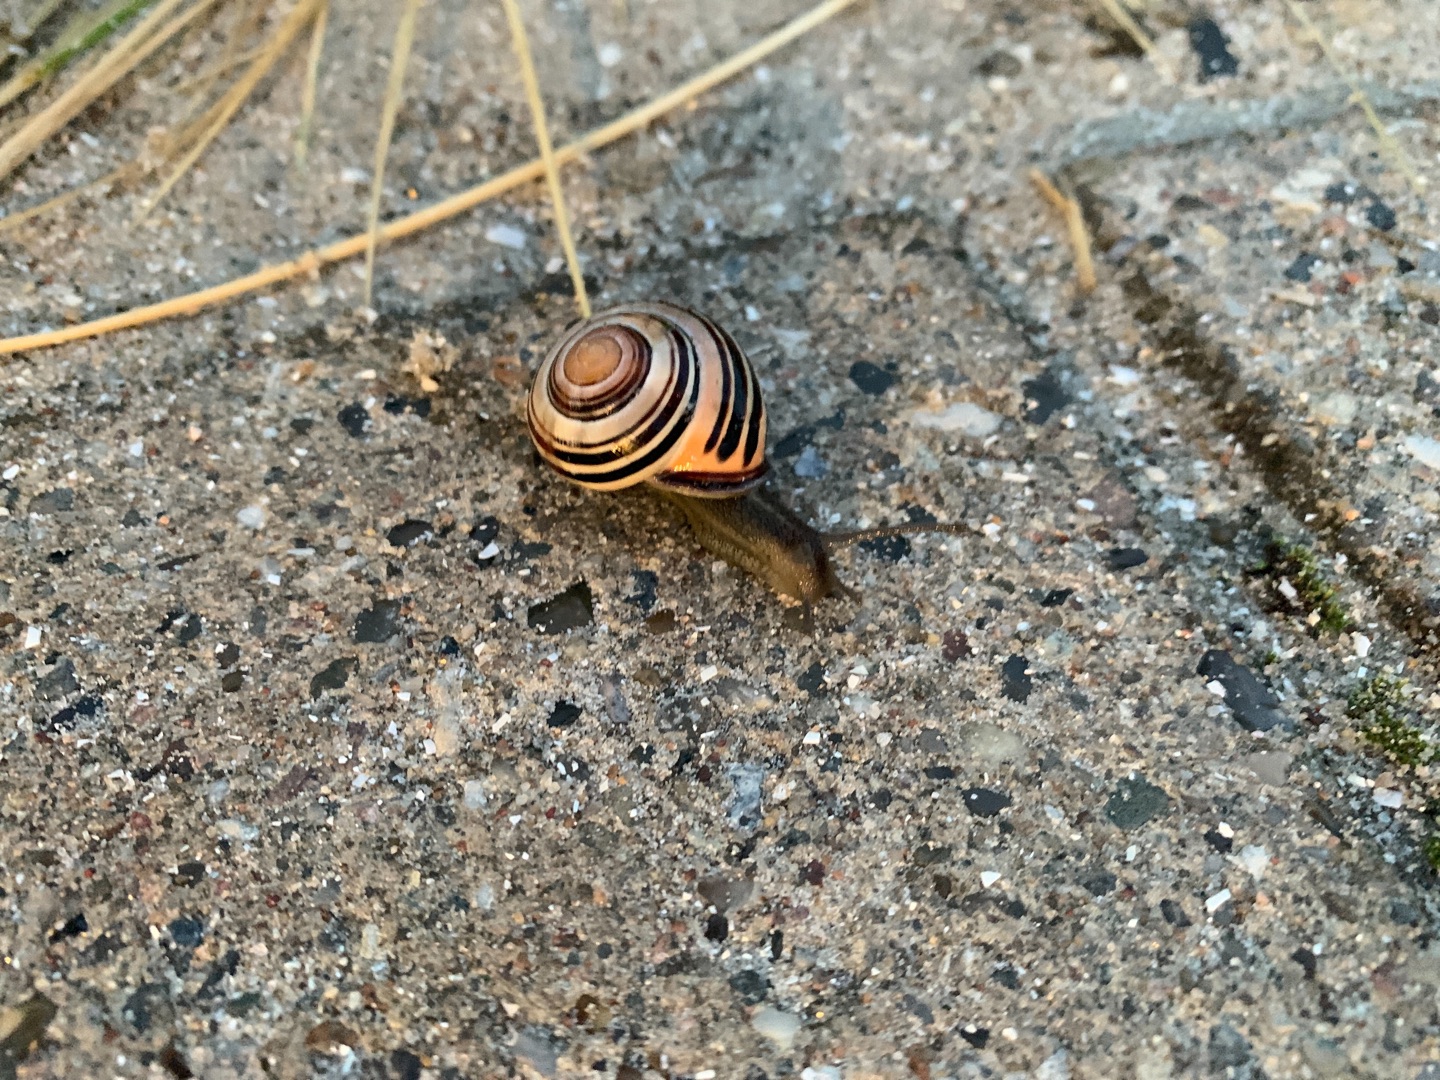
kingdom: Animalia
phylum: Mollusca
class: Gastropoda
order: Stylommatophora
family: Helicidae
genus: Cepaea
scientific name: Cepaea nemoralis
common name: Lundsnegl
